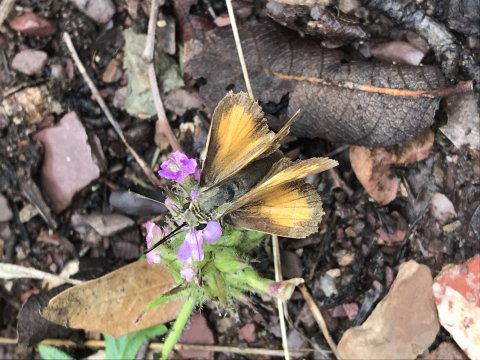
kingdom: Animalia
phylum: Arthropoda
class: Insecta
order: Lepidoptera
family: Hesperiidae
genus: Lon
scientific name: Lon taxiles
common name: Taxiles Skipper
